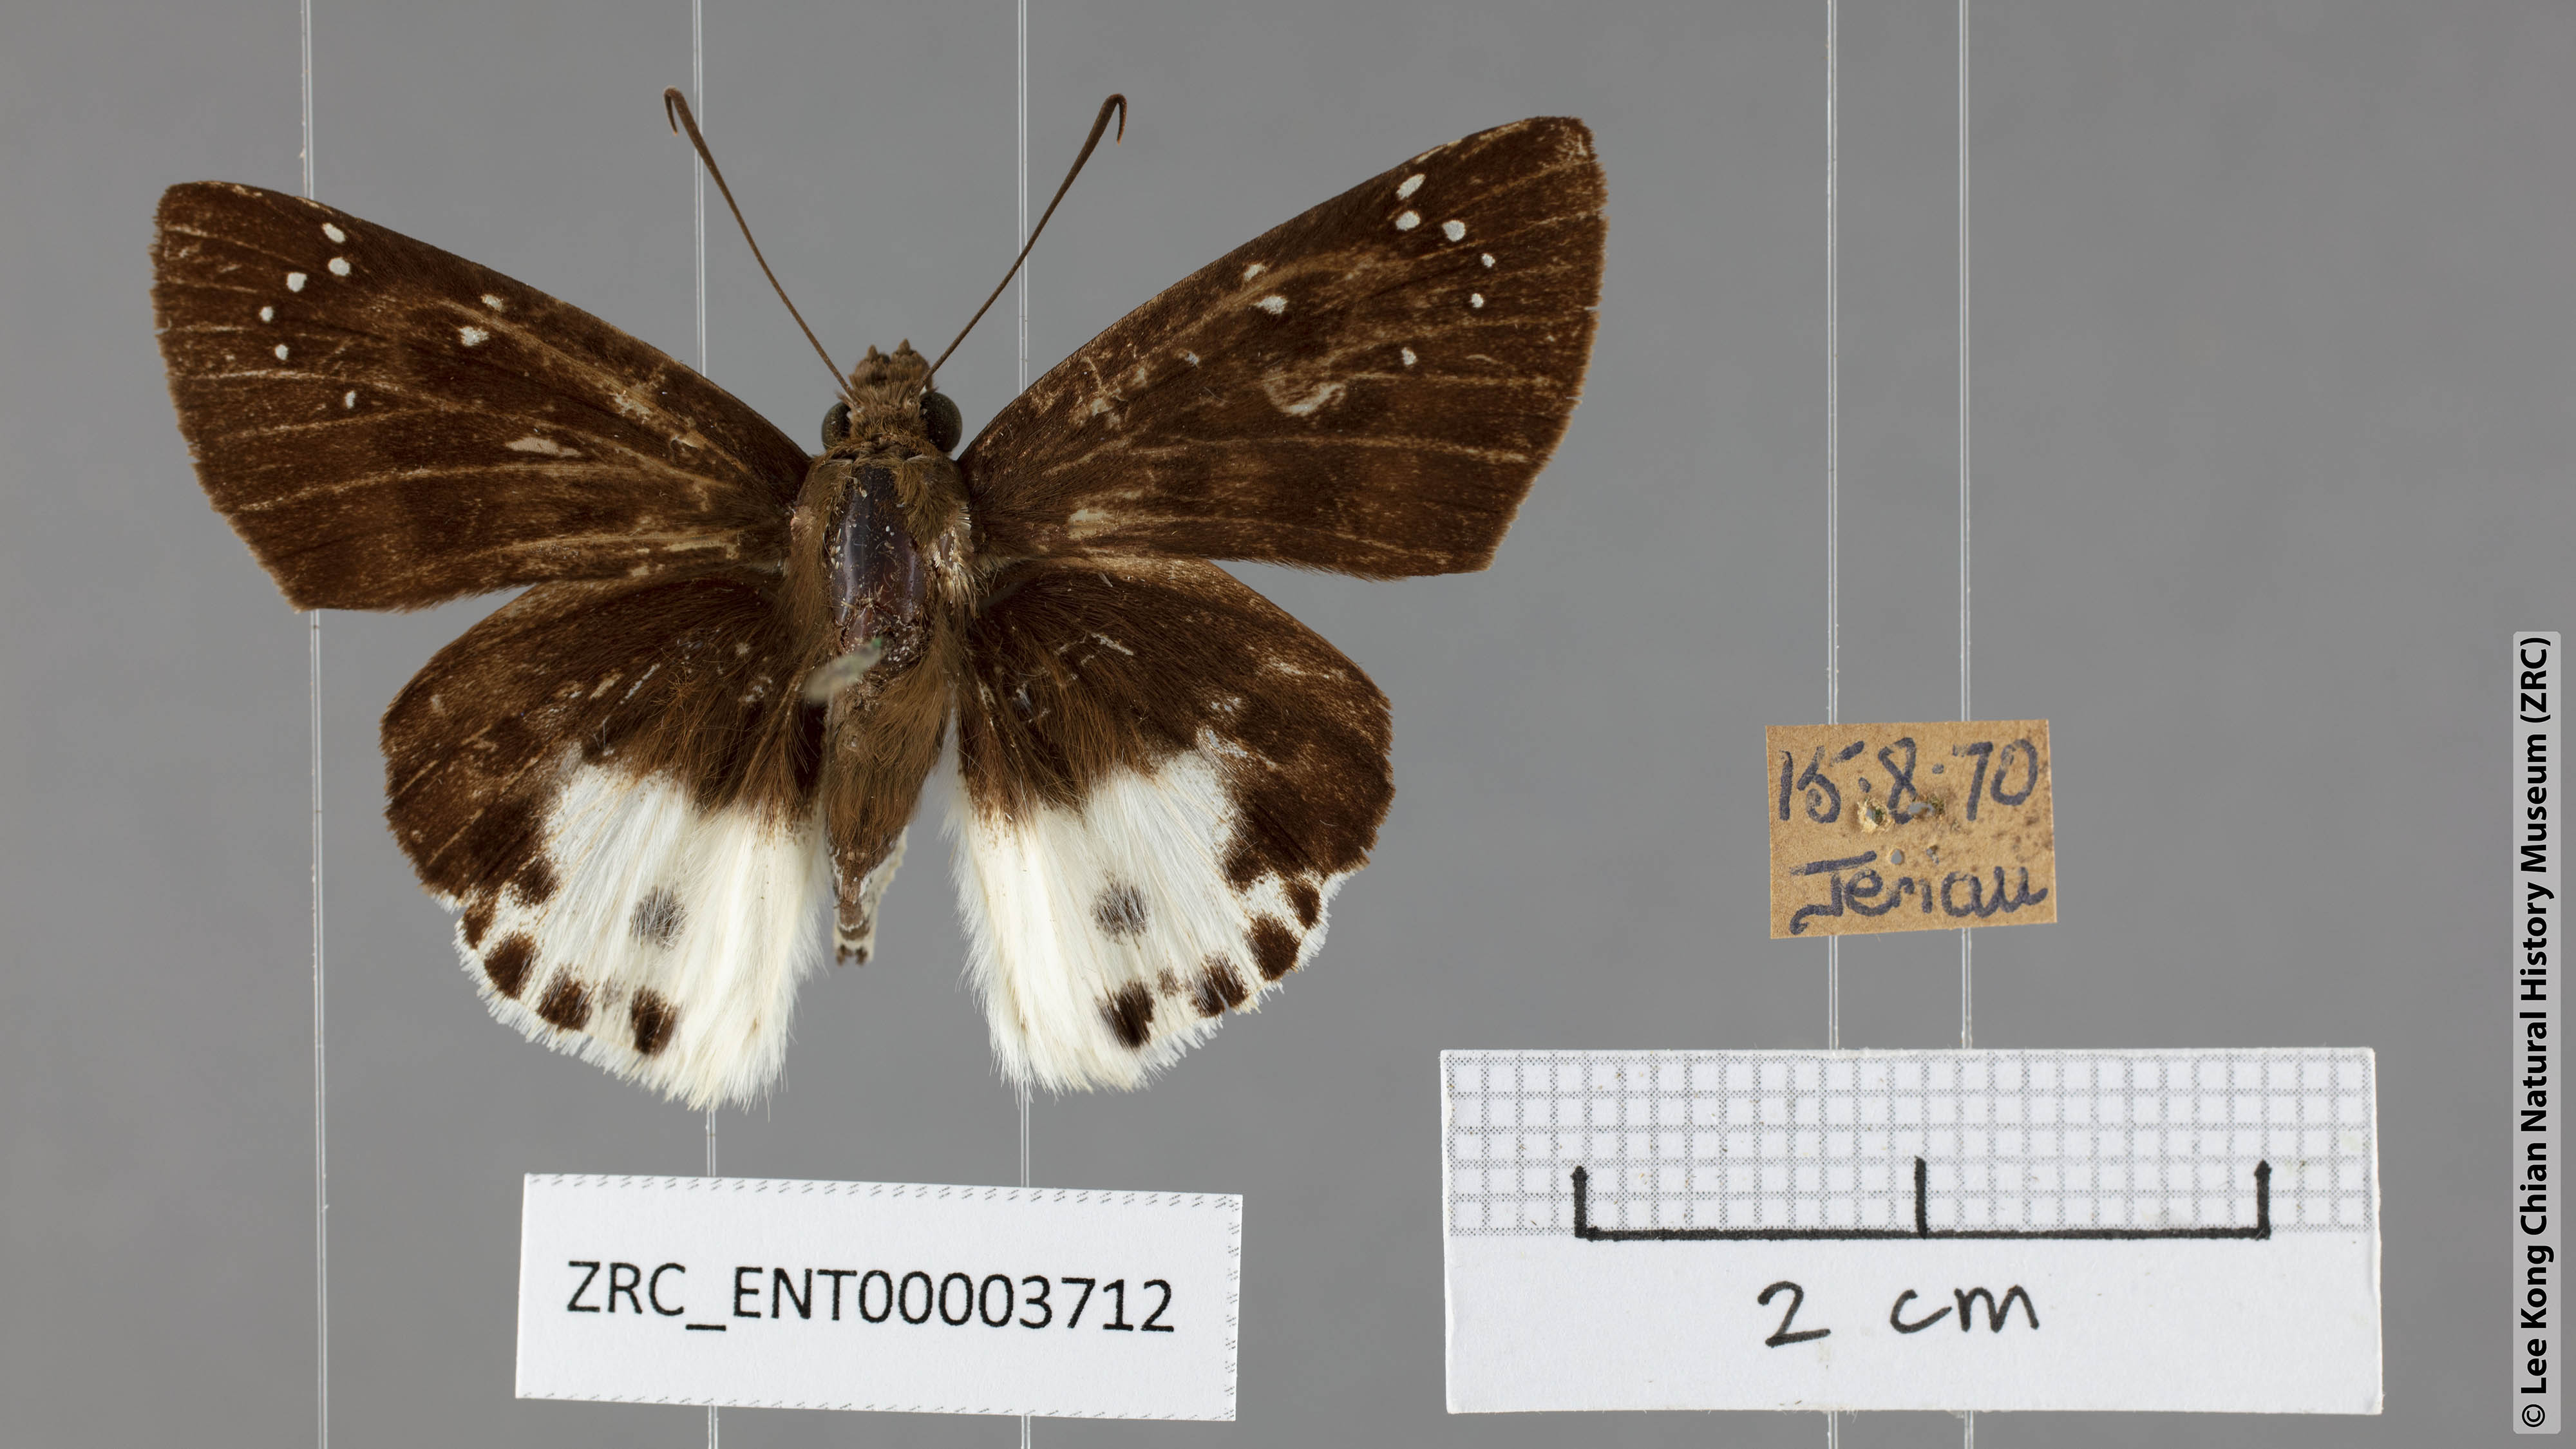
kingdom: Animalia
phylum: Arthropoda
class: Insecta
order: Lepidoptera
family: Hesperiidae
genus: Tagiades
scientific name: Tagiades menaka
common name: Dark-edged snow flat
